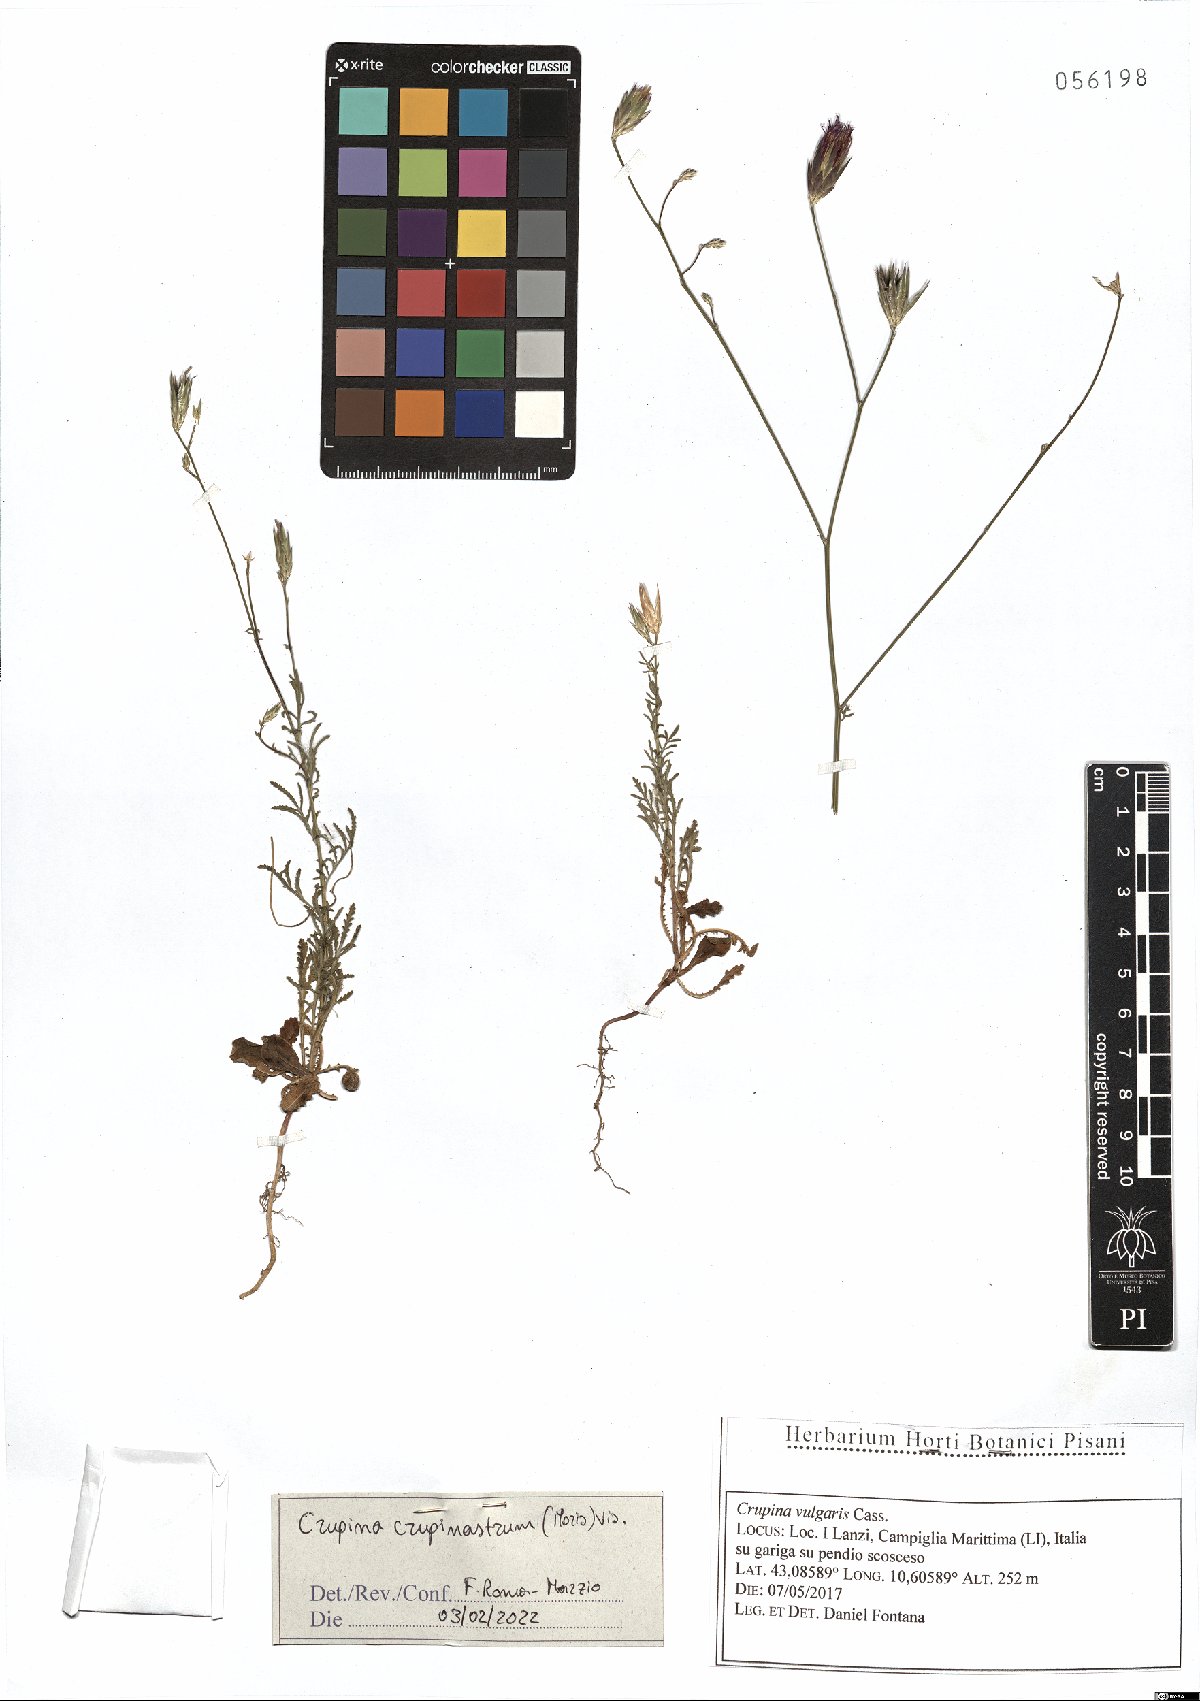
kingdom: Plantae
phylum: Tracheophyta
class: Magnoliopsida
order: Asterales
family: Asteraceae
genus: Crupina
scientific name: Crupina crupinastrum
